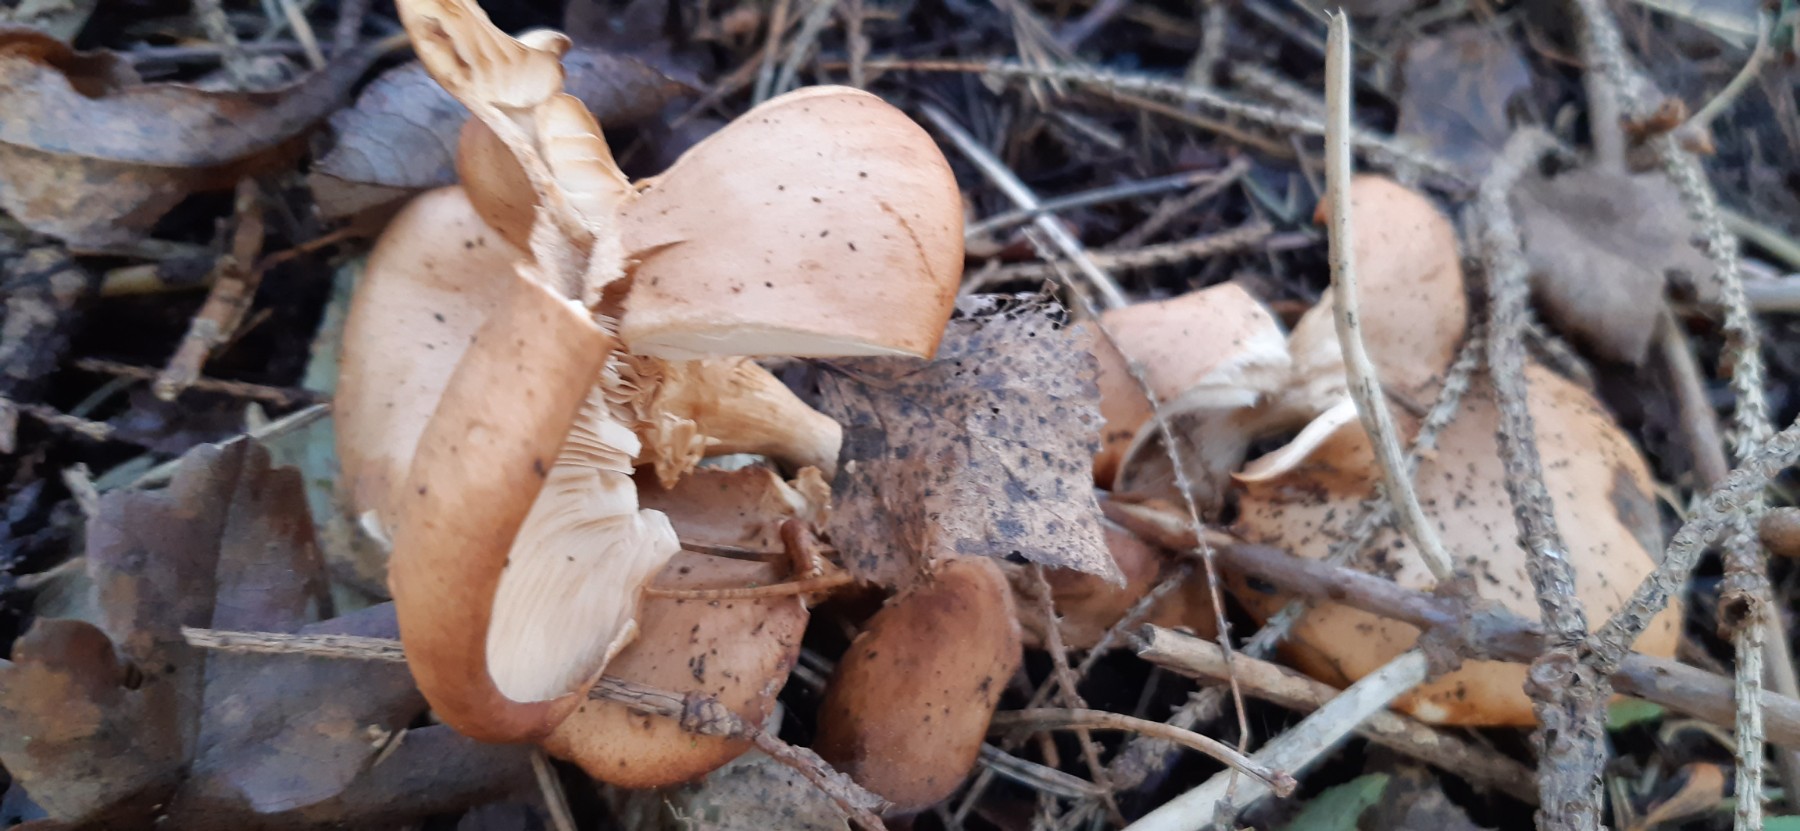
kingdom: Fungi
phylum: Basidiomycota
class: Agaricomycetes
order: Agaricales
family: Tricholomataceae
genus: Paralepista
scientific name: Paralepista flaccida
